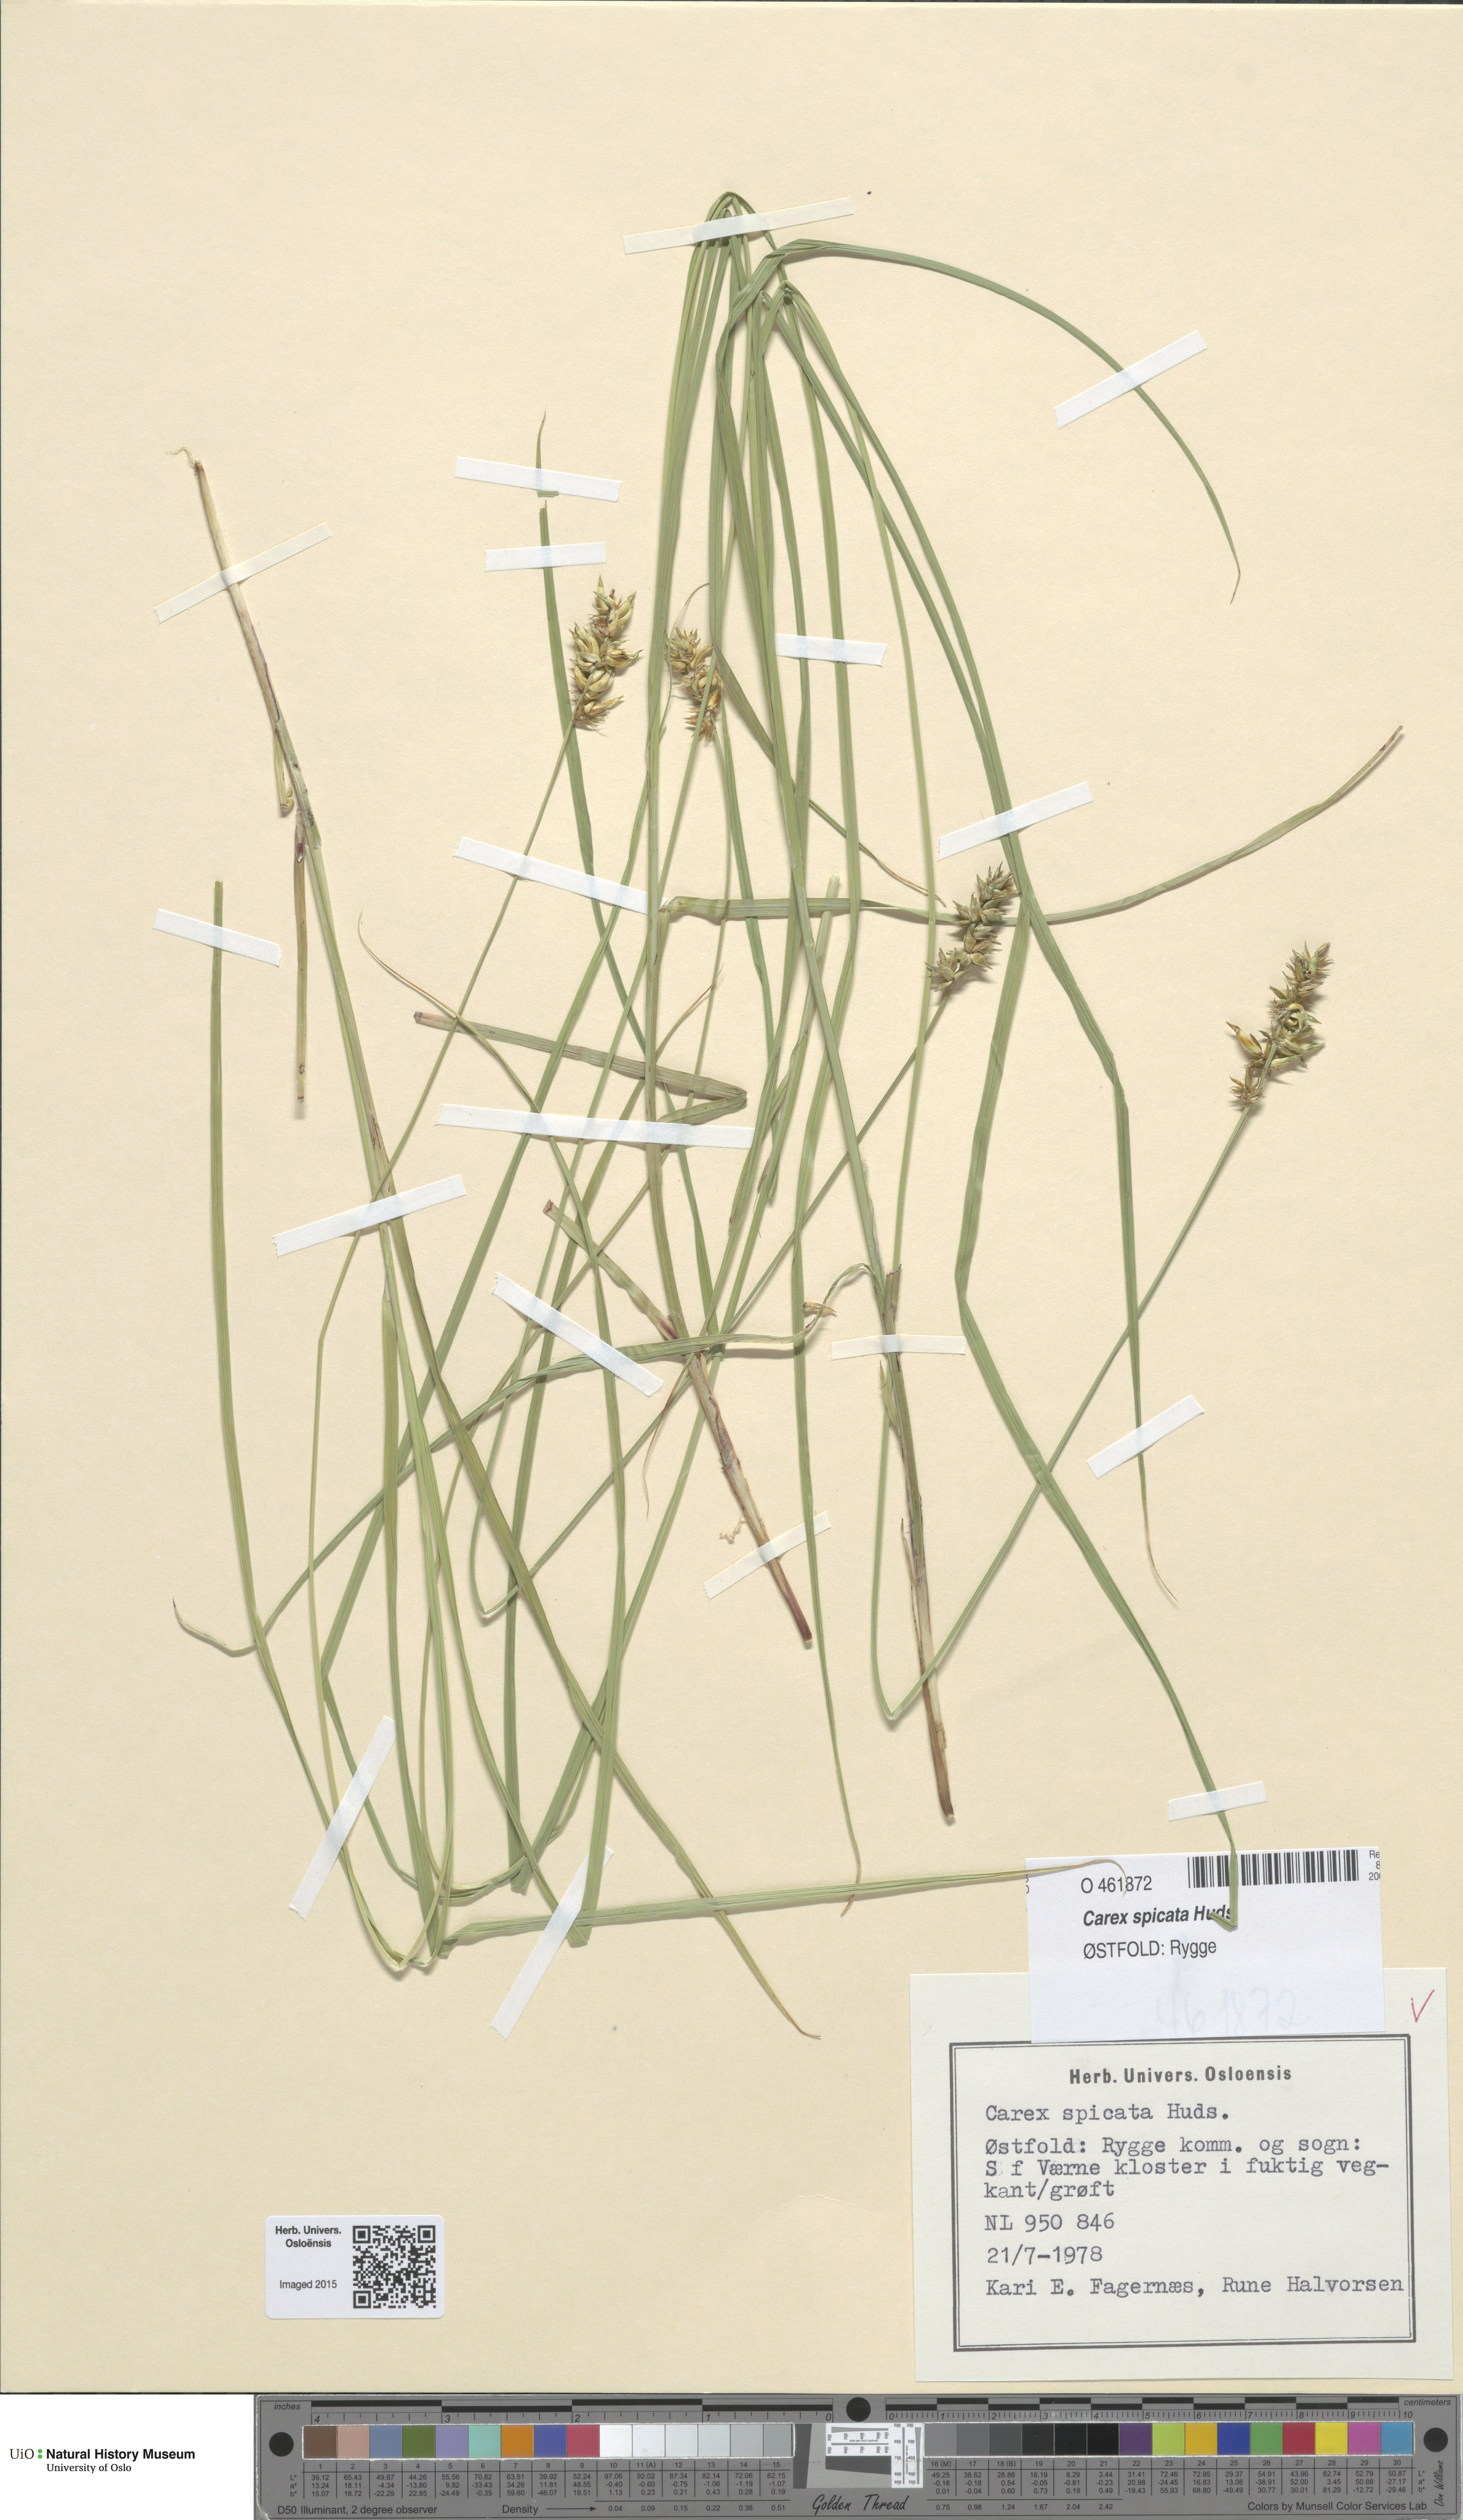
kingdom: Plantae
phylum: Tracheophyta
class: Liliopsida
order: Poales
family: Poaceae
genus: Anthoxanthum
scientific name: Anthoxanthum nitens
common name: Holy grass
